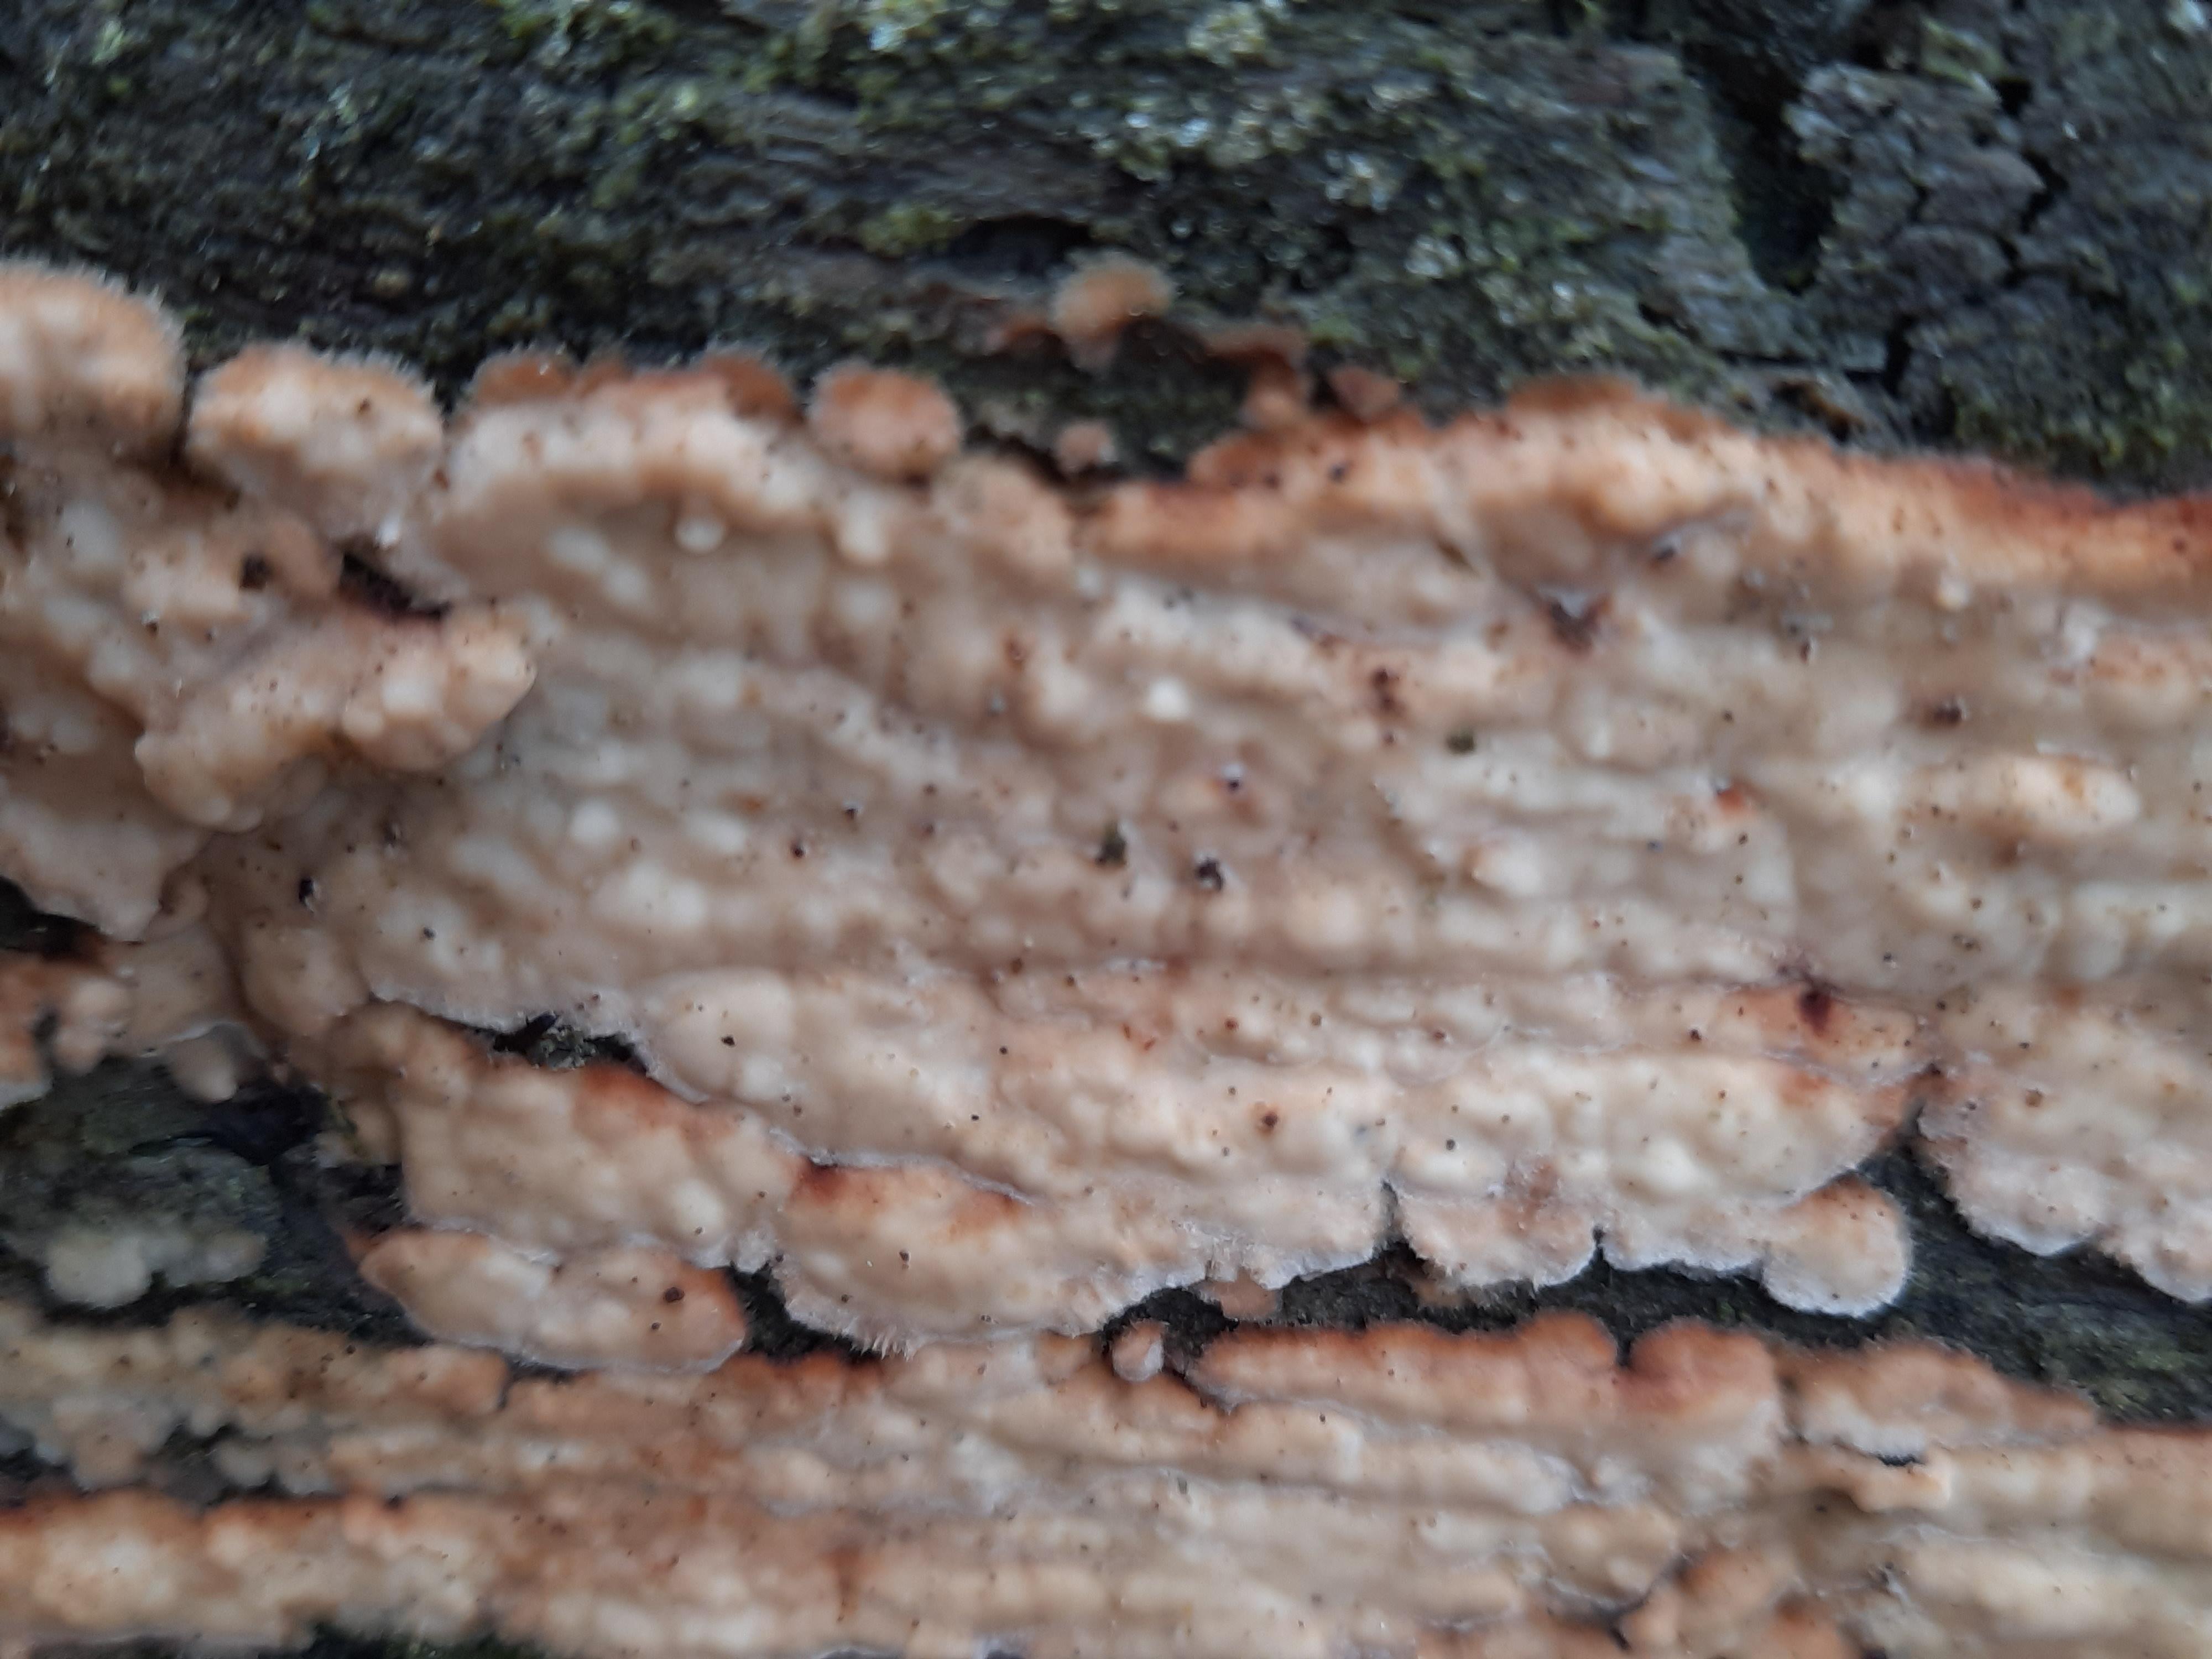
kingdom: Fungi
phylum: Basidiomycota
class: Agaricomycetes
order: Polyporales
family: Dacryobolaceae
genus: Dacryobolus
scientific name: Dacryobolus karstenii
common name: glat vulkanskorpe
